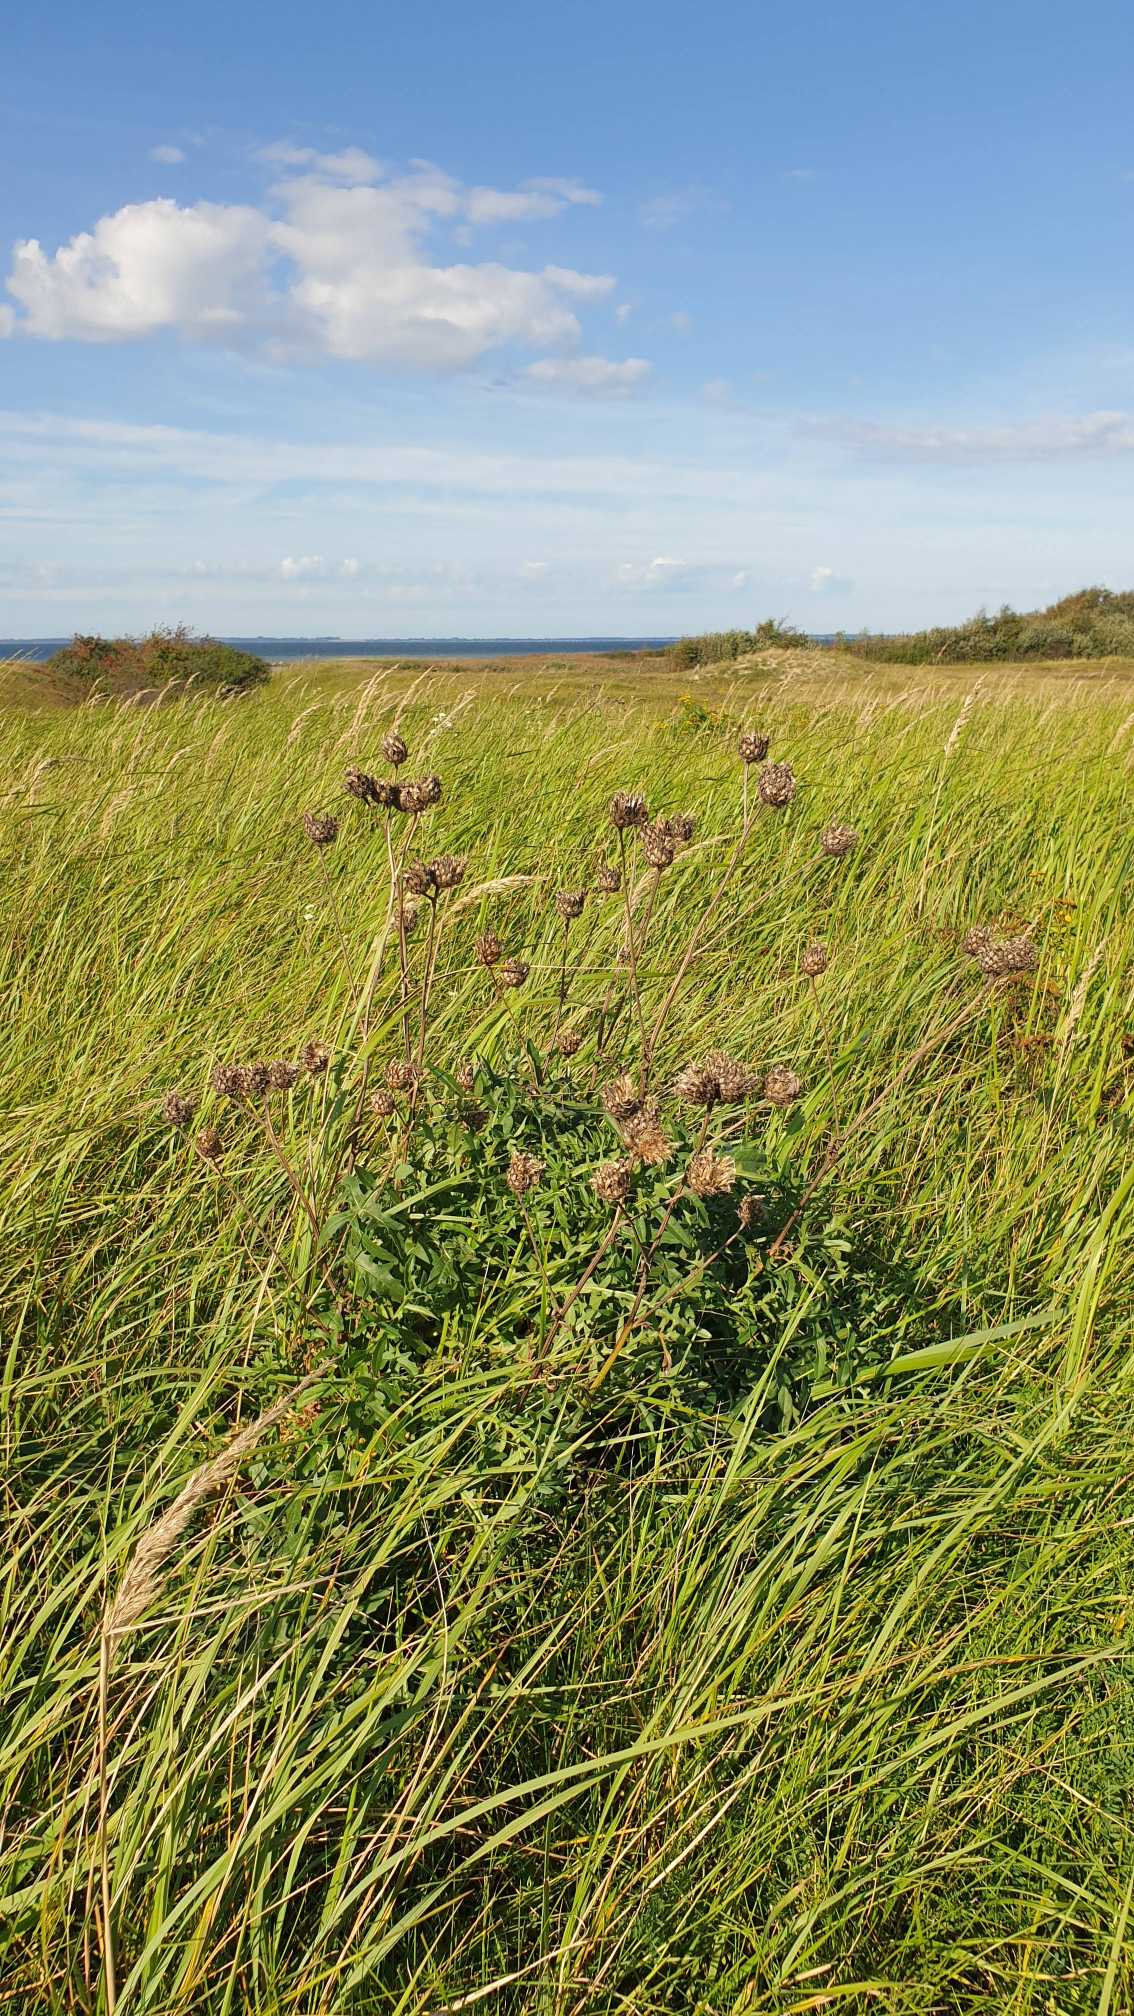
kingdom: Plantae
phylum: Tracheophyta
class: Magnoliopsida
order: Asterales
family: Asteraceae
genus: Centaurea
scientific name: Centaurea scabiosa
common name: Stor knopurt
